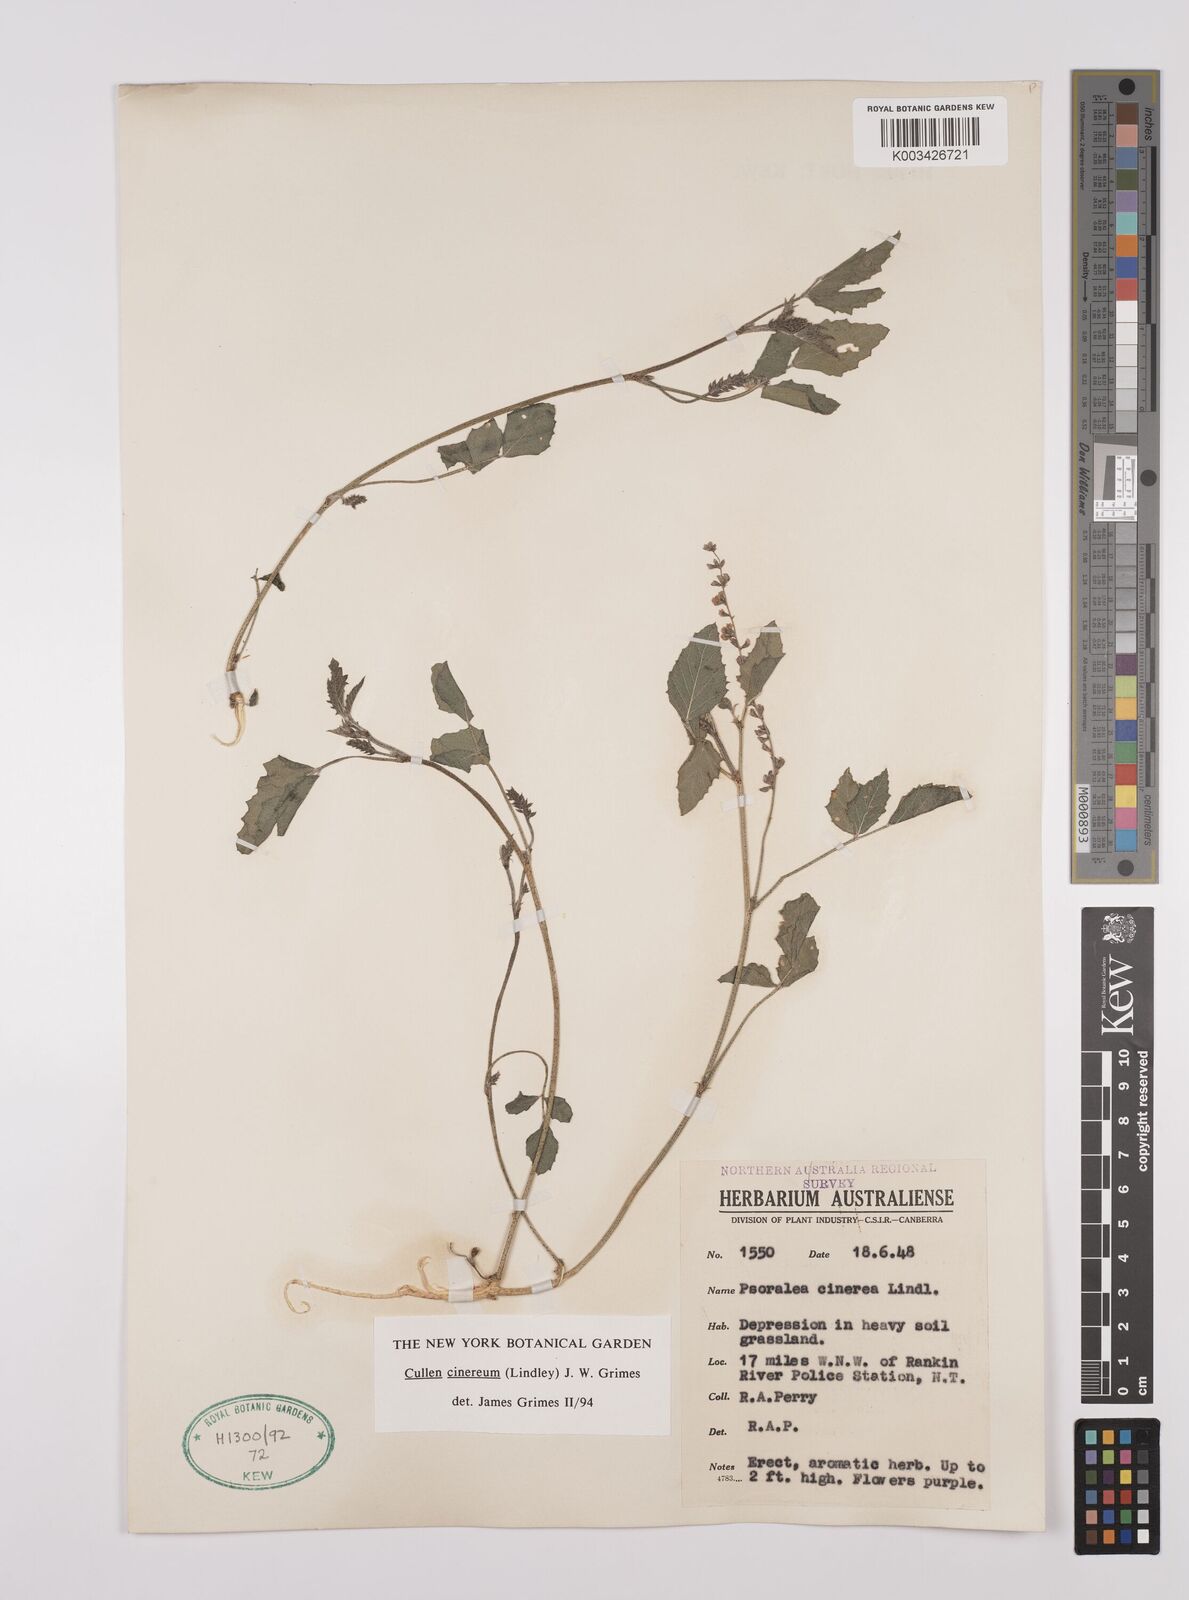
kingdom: Plantae
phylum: Tracheophyta
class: Magnoliopsida
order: Fabales
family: Fabaceae
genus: Cullen
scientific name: Cullen cinereum
